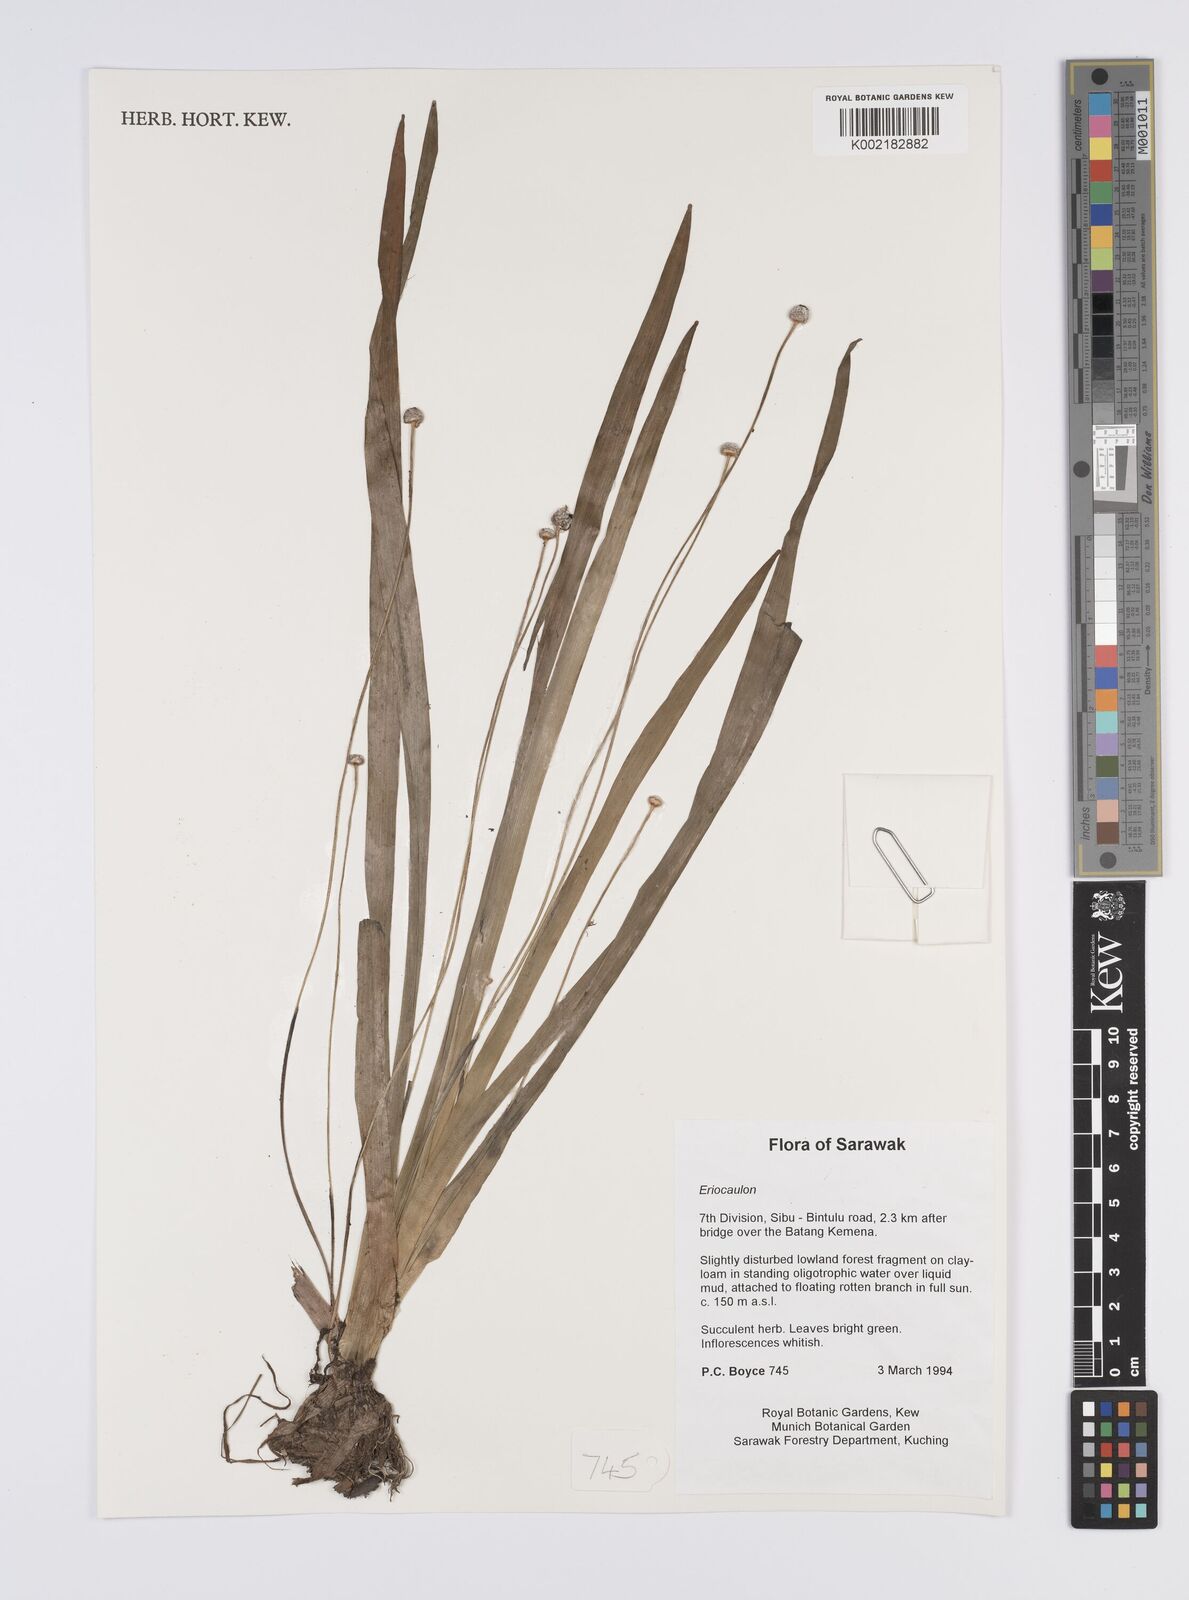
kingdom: Plantae
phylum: Tracheophyta
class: Liliopsida
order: Poales
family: Eriocaulaceae
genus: Eriocaulon
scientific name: Eriocaulon
